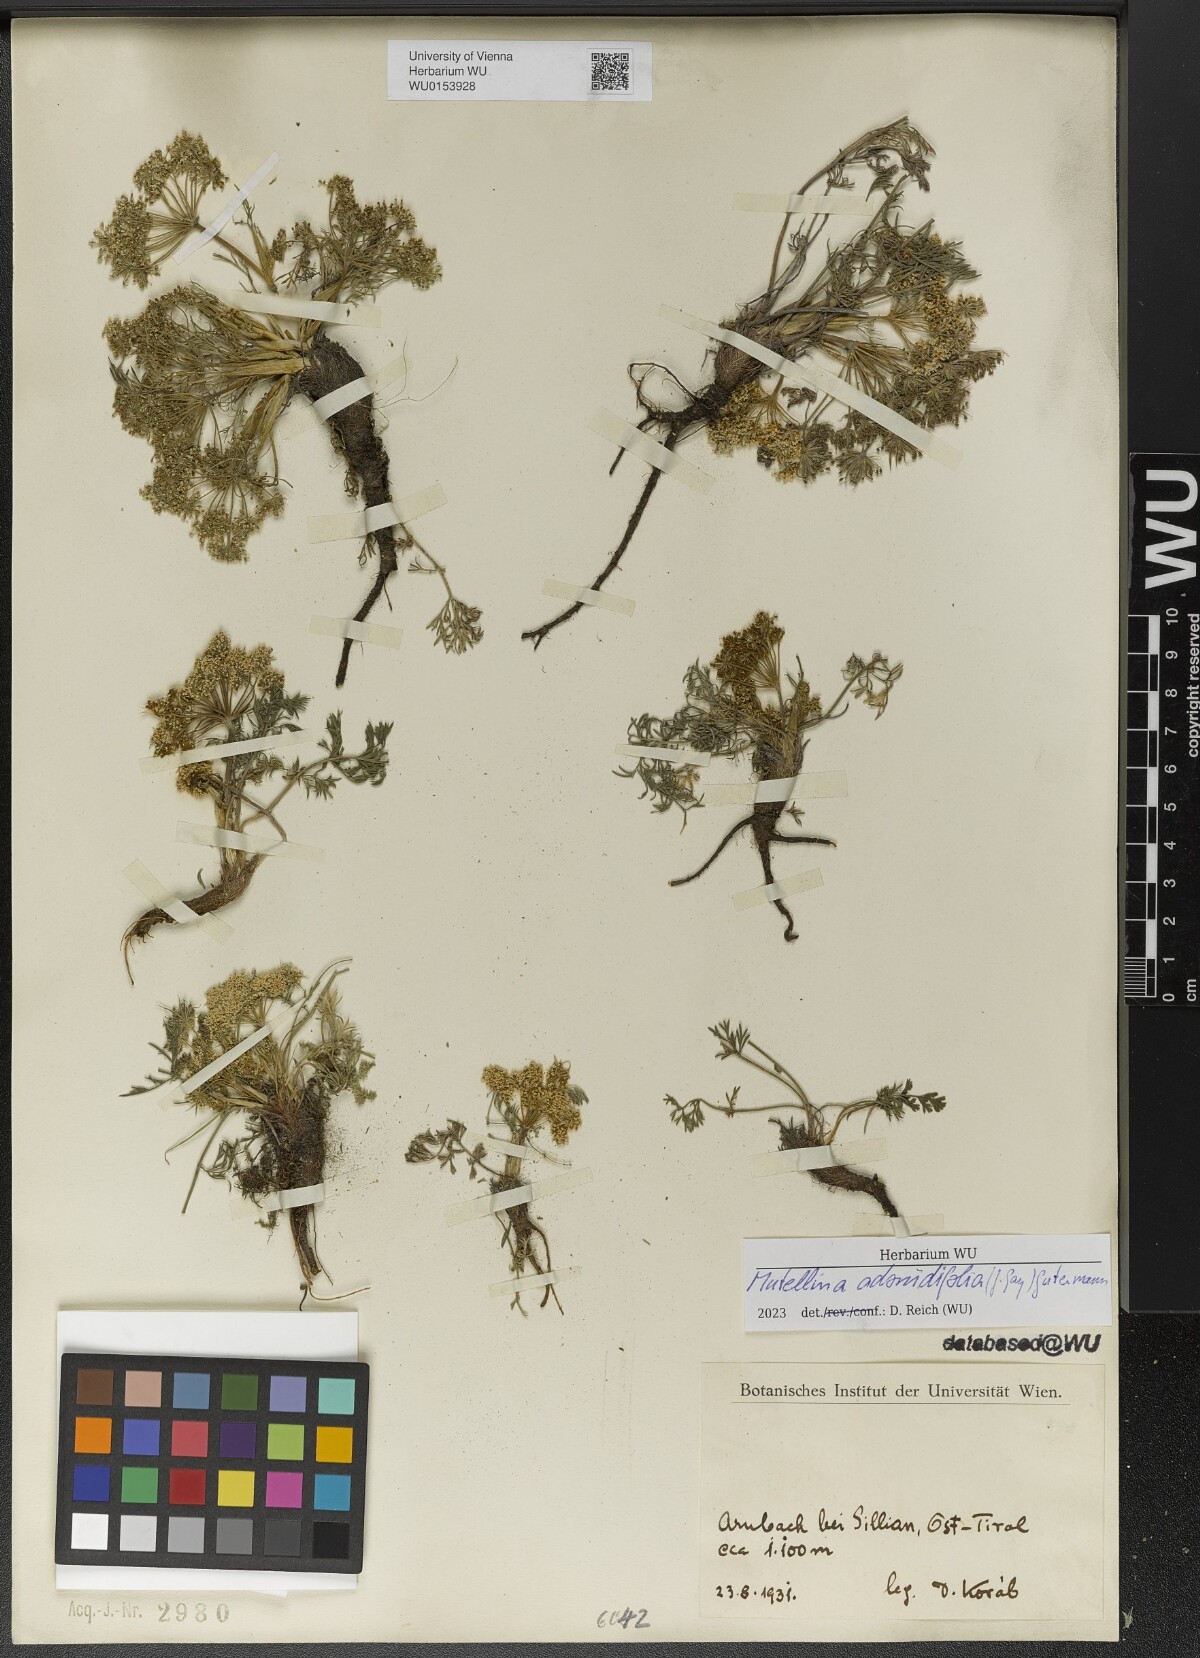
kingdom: Plantae
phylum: Tracheophyta
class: Magnoliopsida
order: Apiales
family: Apiaceae
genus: Mutellina
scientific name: Mutellina adonidifolia
